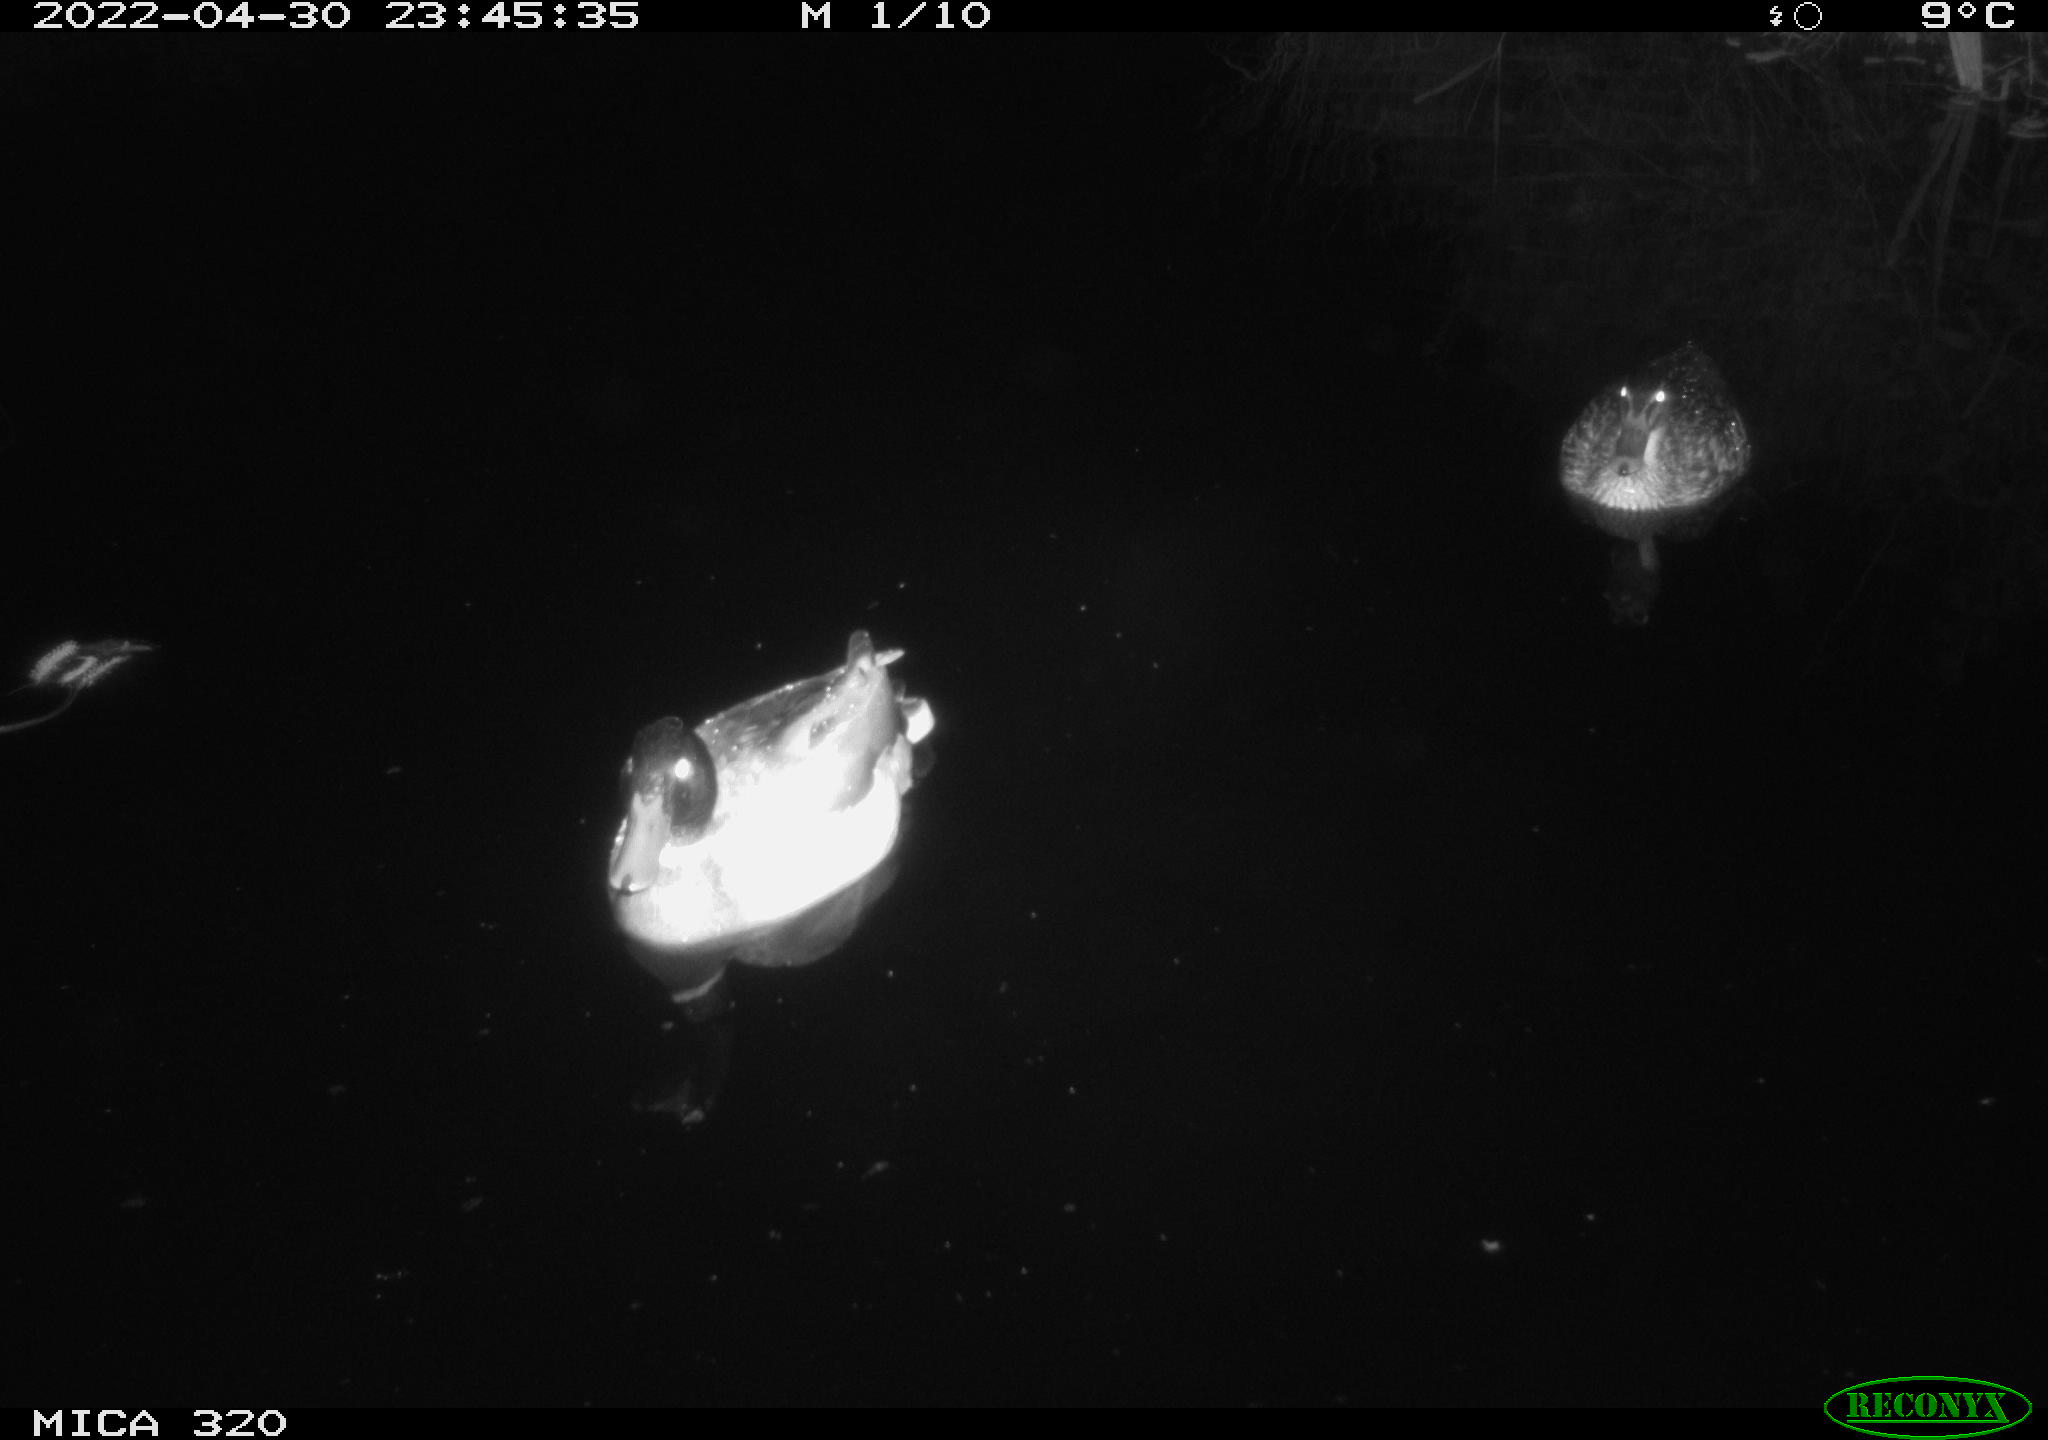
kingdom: Animalia
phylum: Chordata
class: Aves
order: Anseriformes
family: Anatidae
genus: Anas
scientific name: Anas platyrhynchos
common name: Mallard
